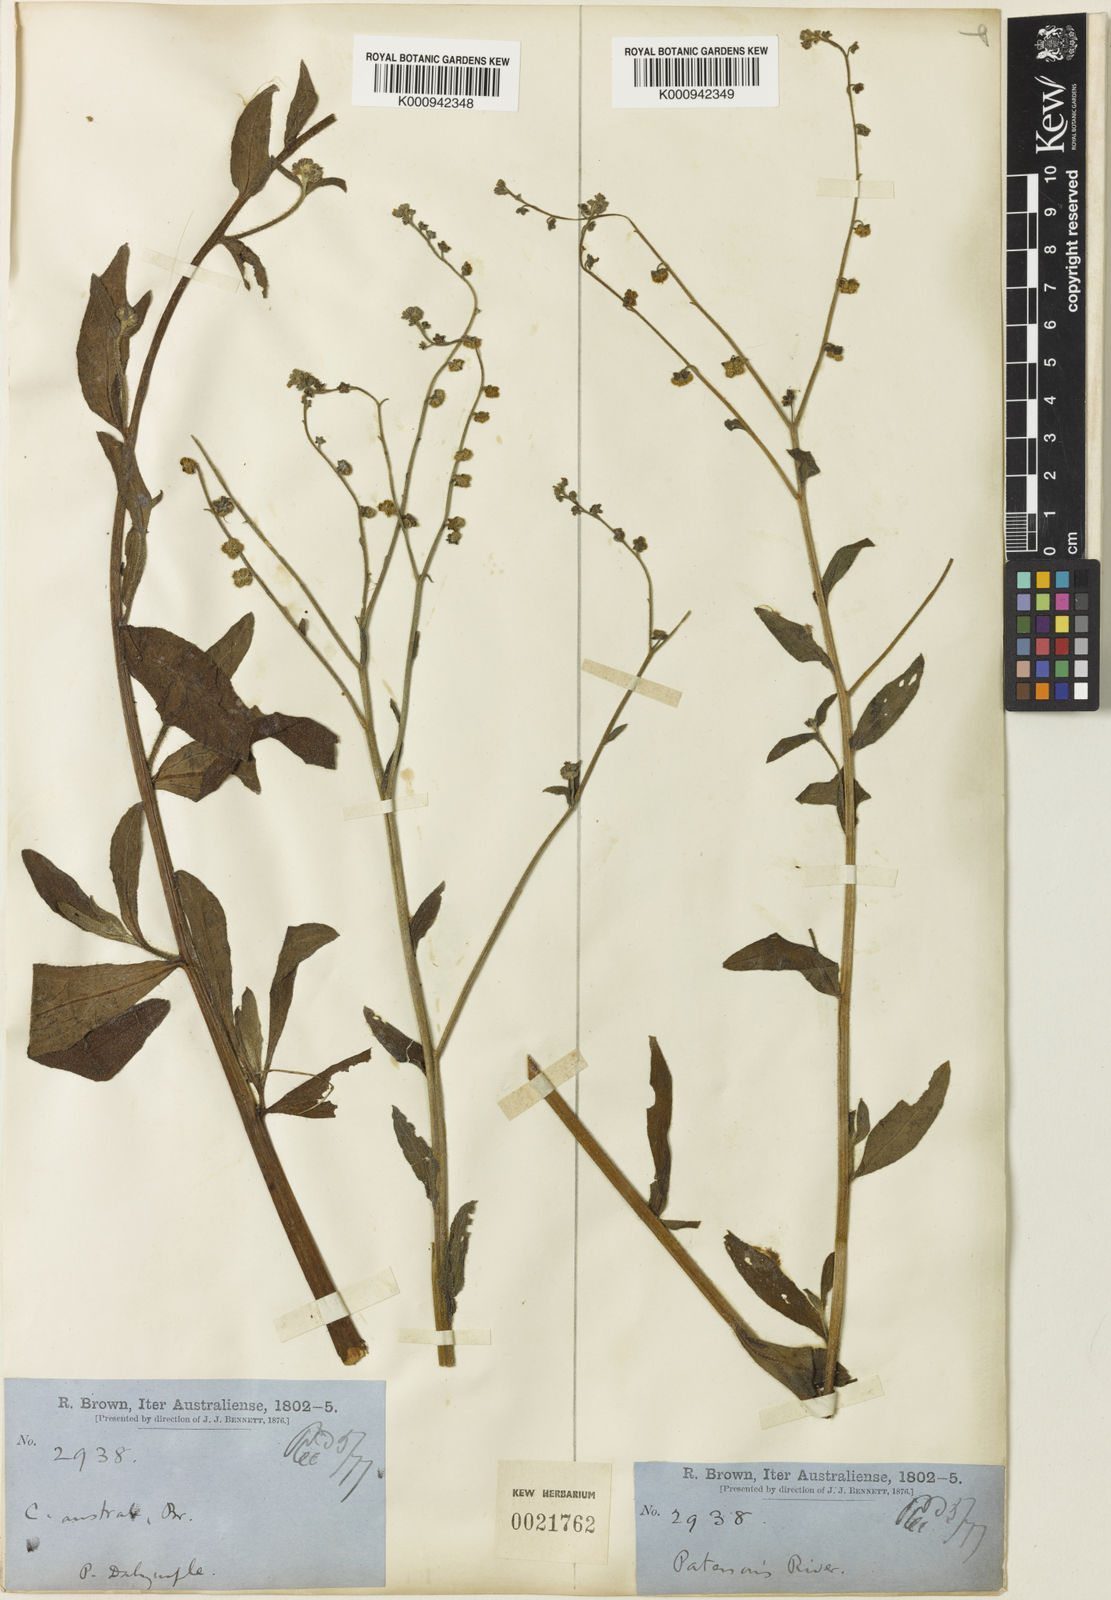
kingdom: Plantae
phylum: Tracheophyta
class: Magnoliopsida
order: Boraginales
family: Boraginaceae
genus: Cynoglossum
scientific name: Cynoglossum australe
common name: Australian hound's-tongue
